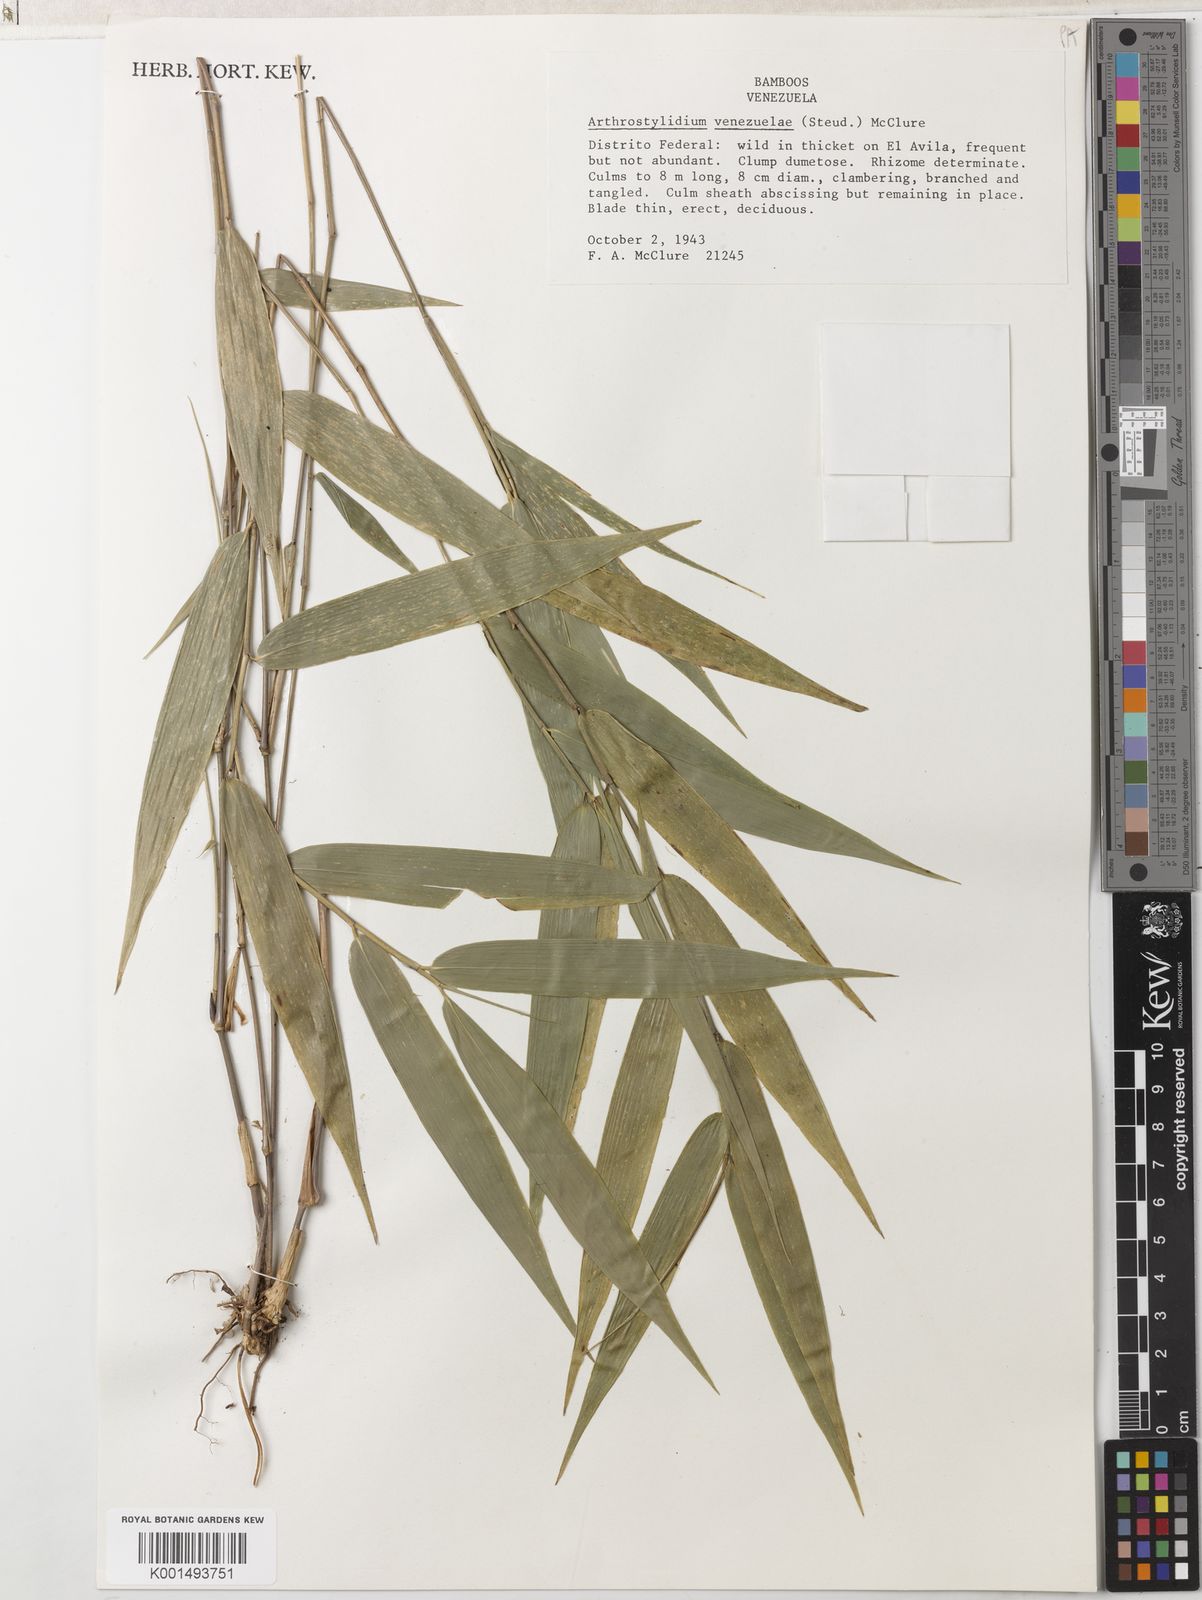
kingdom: Plantae
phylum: Tracheophyta
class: Liliopsida
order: Poales
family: Poaceae
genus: Arthrostylidium
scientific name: Arthrostylidium venezuelae
